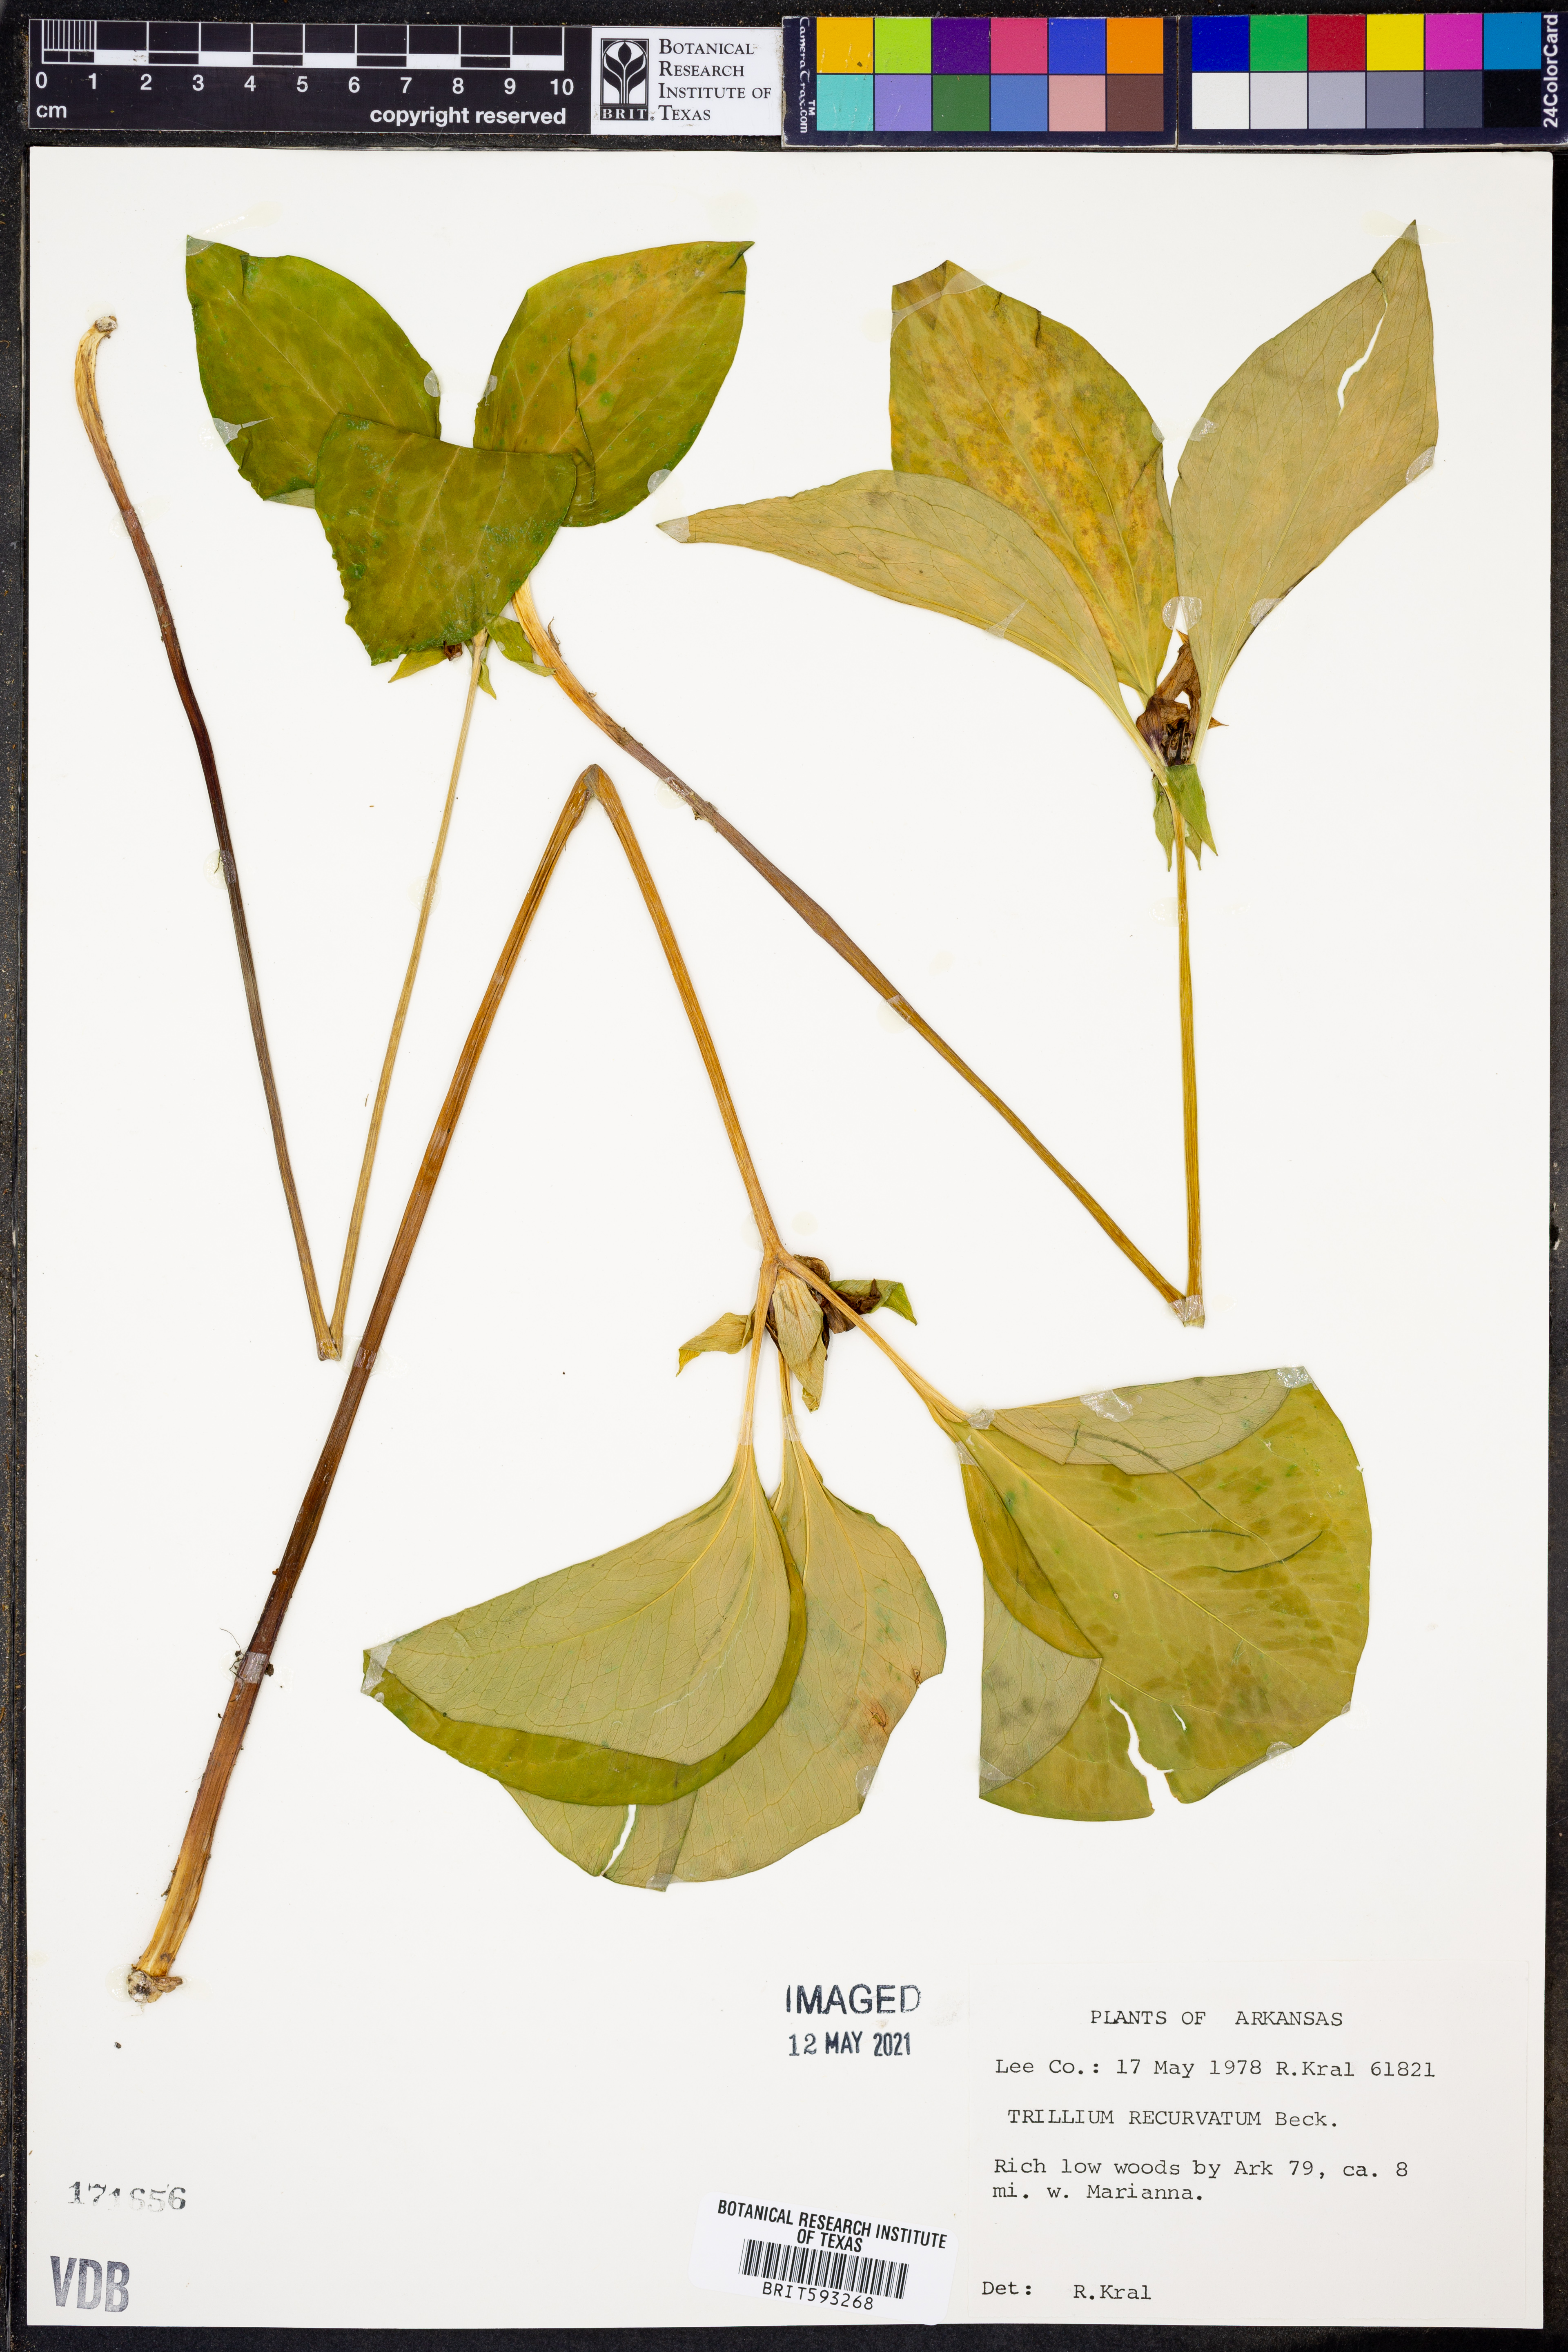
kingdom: Plantae
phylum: Tracheophyta
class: Liliopsida
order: Liliales
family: Melanthiaceae
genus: Trillium
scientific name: Trillium recurvatum
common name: Bloody butcher
